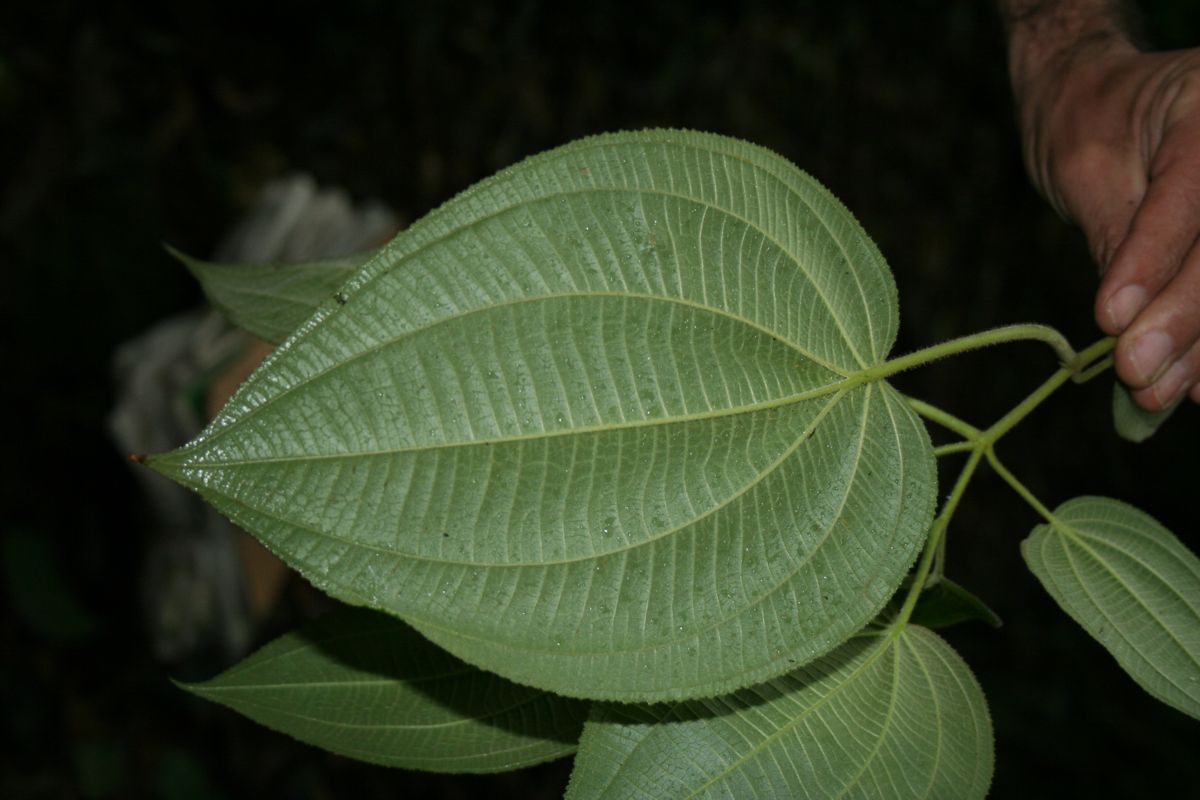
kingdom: Plantae
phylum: Tracheophyta
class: Magnoliopsida
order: Myrtales
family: Melastomataceae
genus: Miconia
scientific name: Miconia matudae
